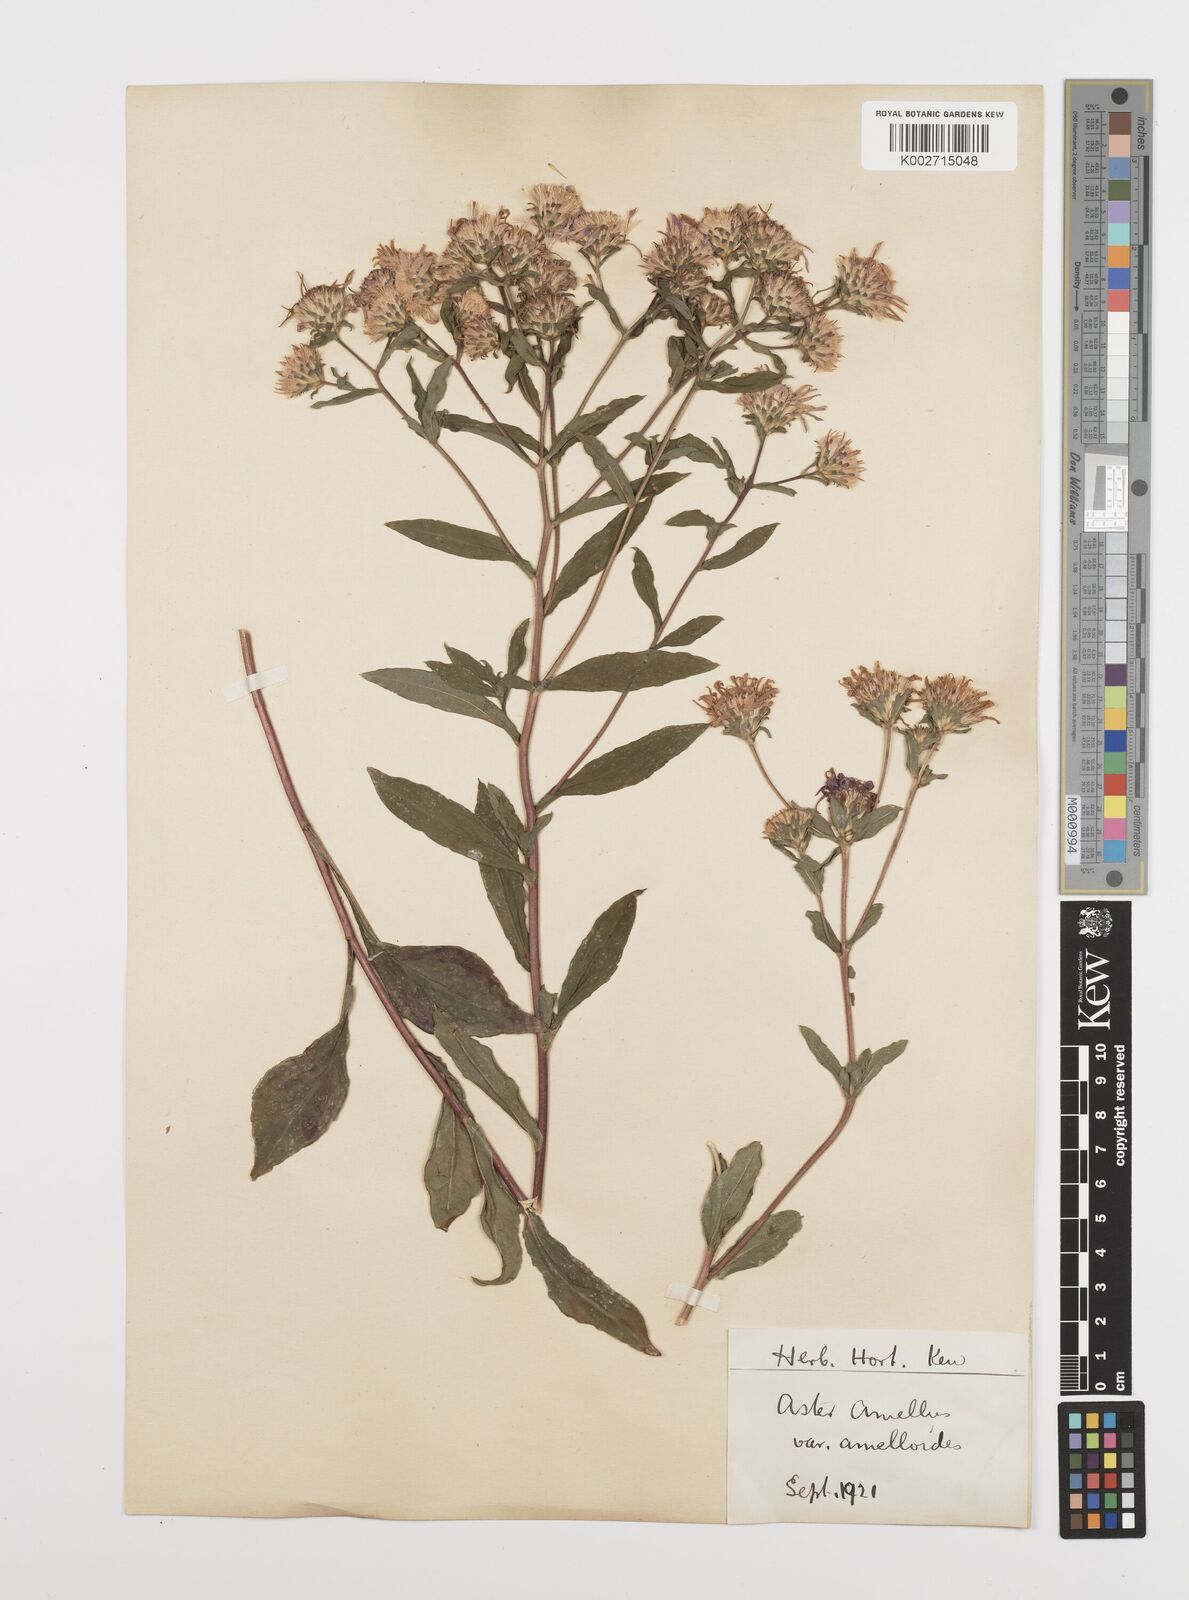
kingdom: Plantae
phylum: Tracheophyta
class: Magnoliopsida
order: Asterales
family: Asteraceae
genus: Aster
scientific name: Aster amellus
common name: European michaelmas daisy
